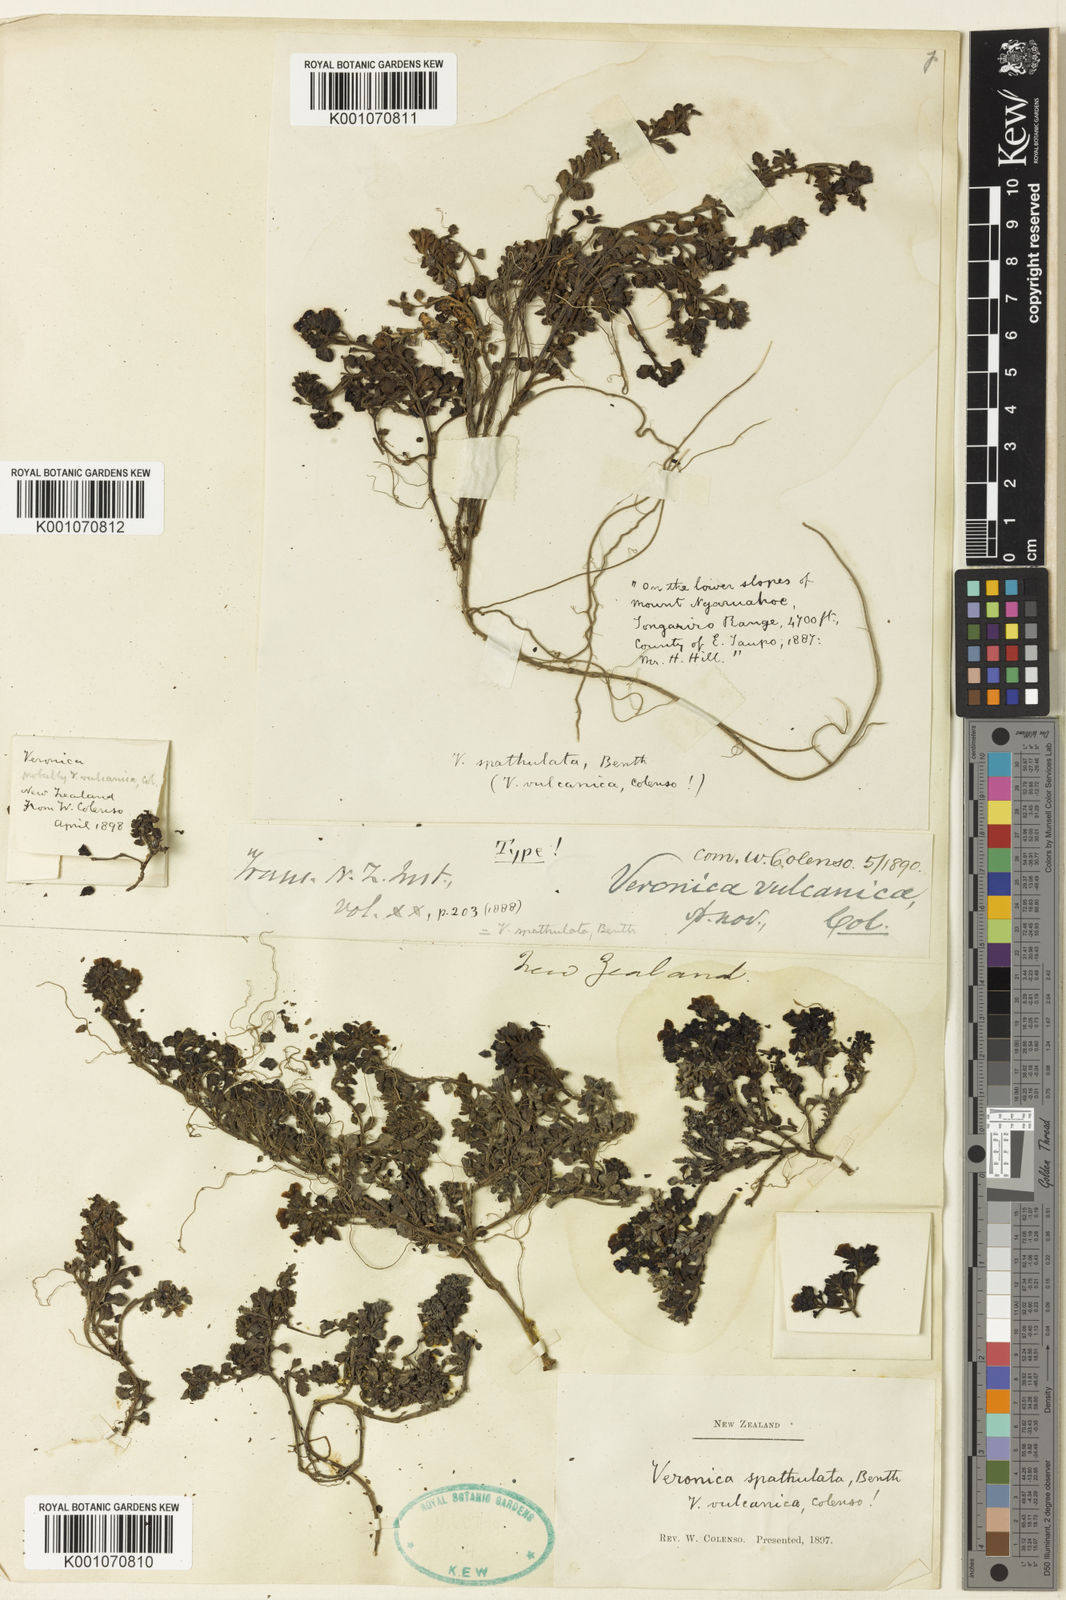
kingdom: Plantae
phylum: Tracheophyta
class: Magnoliopsida
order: Lamiales
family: Plantaginaceae
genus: Veronica
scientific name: Veronica spathulata
